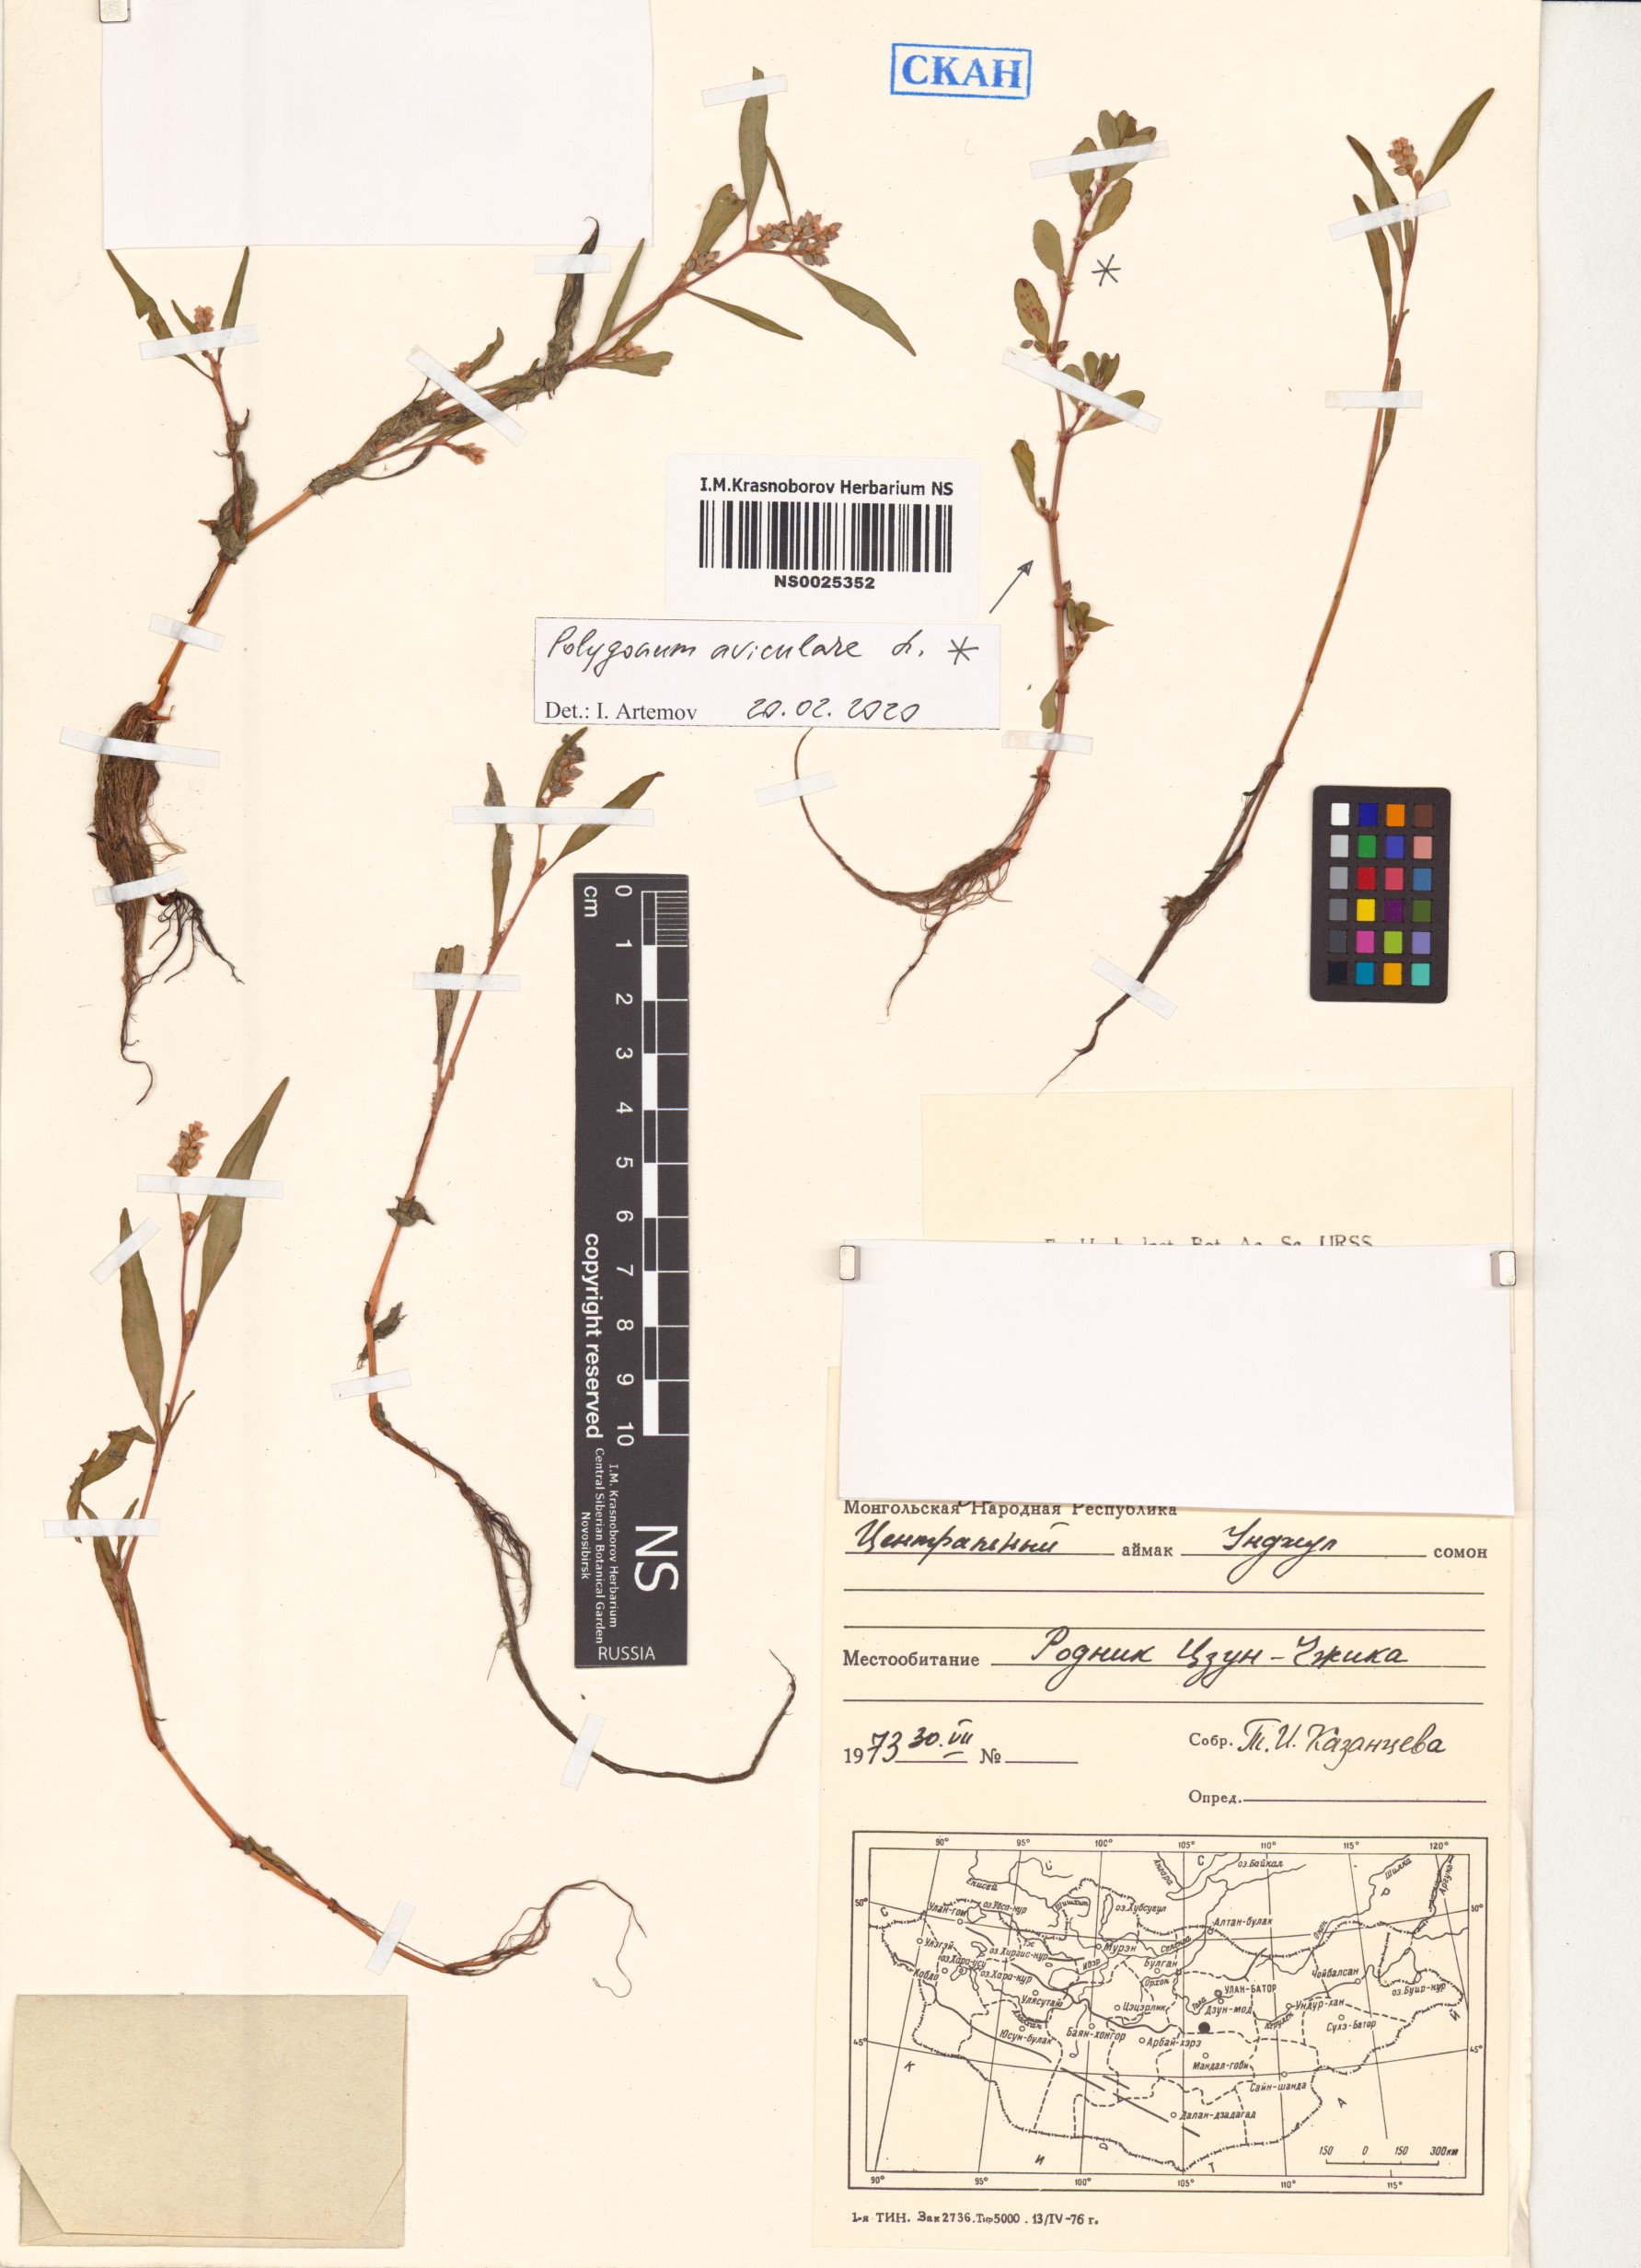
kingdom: Plantae
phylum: Tracheophyta
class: Magnoliopsida
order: Caryophyllales
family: Polygonaceae
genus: Polygonum
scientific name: Polygonum aviculare
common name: Prostrate knotweed
